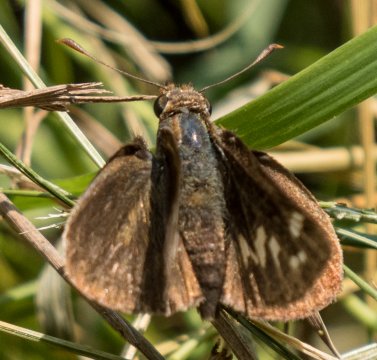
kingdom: Animalia
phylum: Arthropoda
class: Insecta
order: Lepidoptera
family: Hesperiidae
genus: Lon
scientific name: Lon zabulon
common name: Zabulon Skipper
